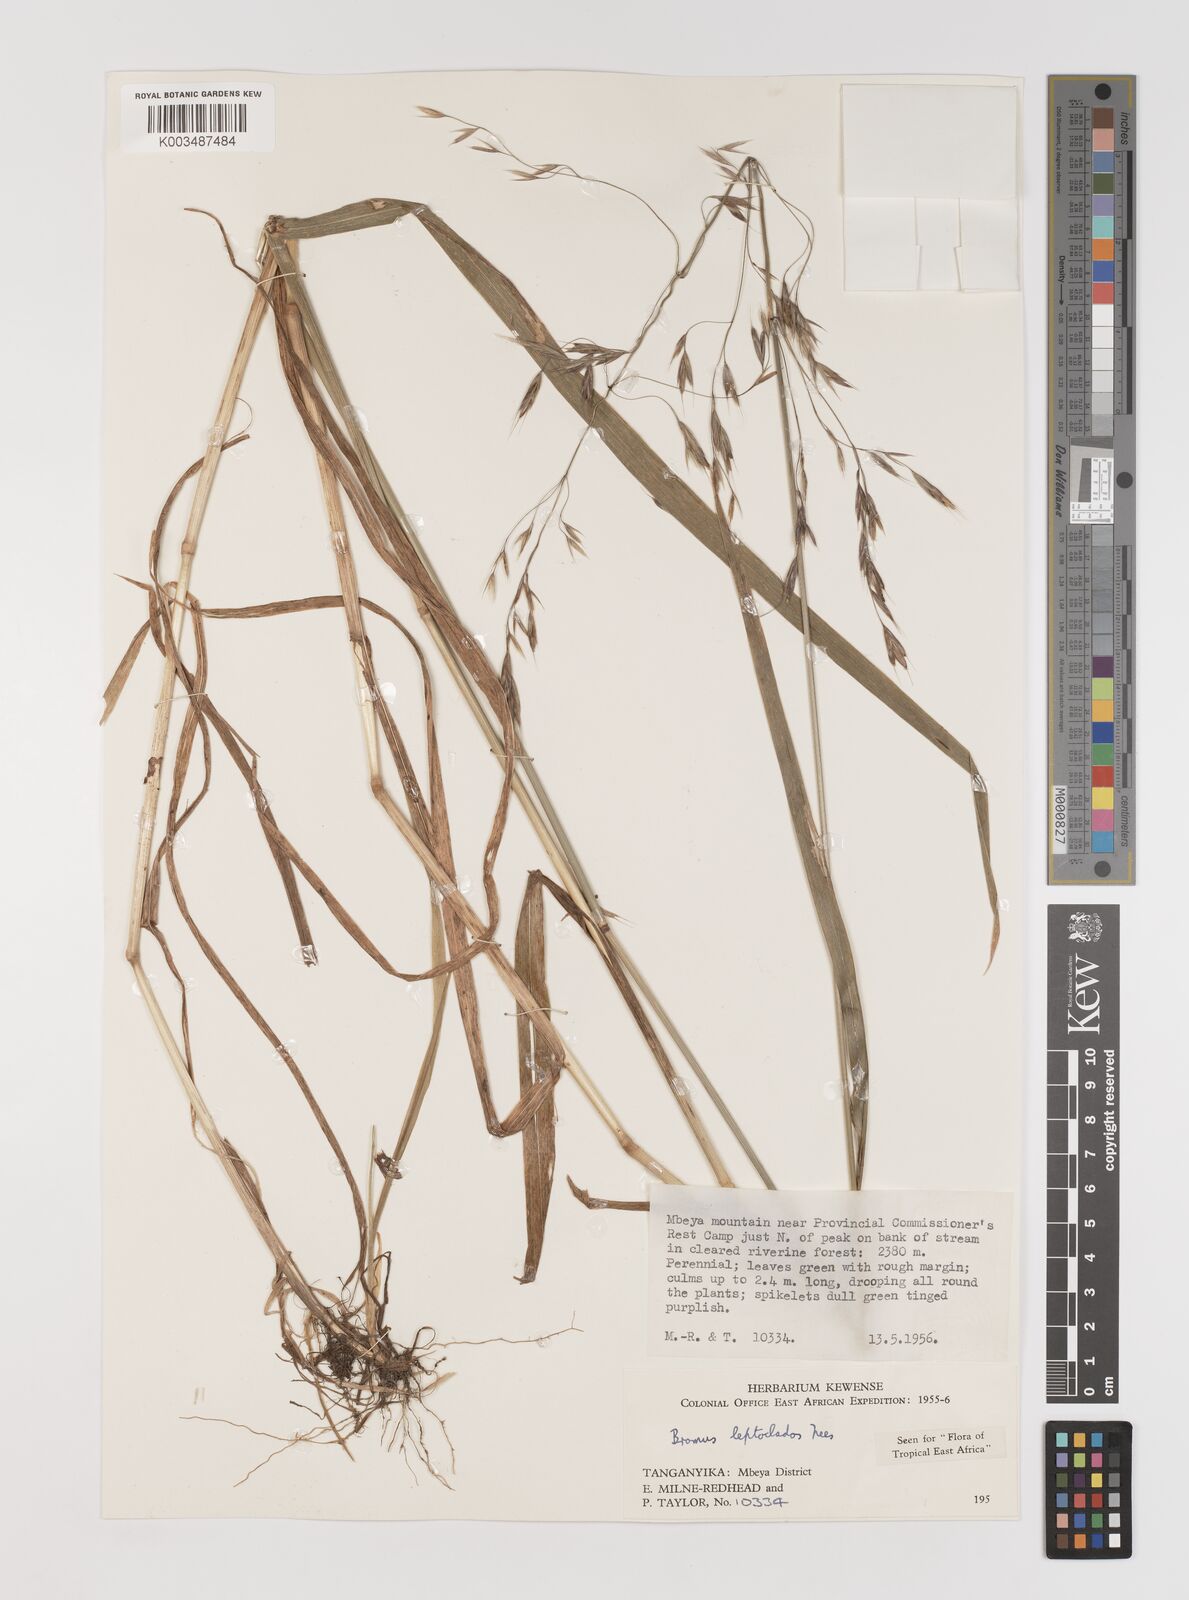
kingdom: Plantae
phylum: Tracheophyta
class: Liliopsida
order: Poales
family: Poaceae
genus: Bromus
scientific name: Bromus leptoclados
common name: Mountain bromegrass
